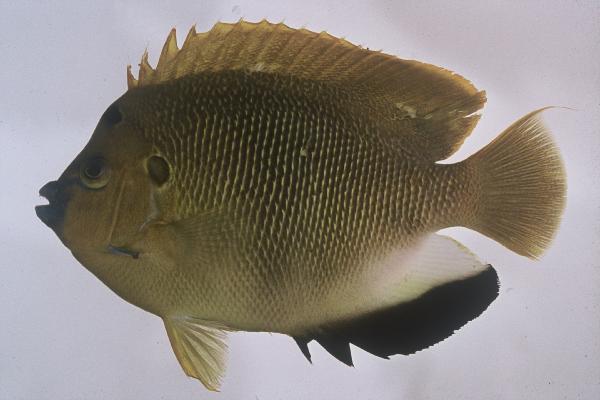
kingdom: Animalia
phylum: Chordata
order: Perciformes
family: Pomacanthidae
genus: Apolemichthys
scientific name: Apolemichthys trimaculatus
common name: Threespot angelfish
